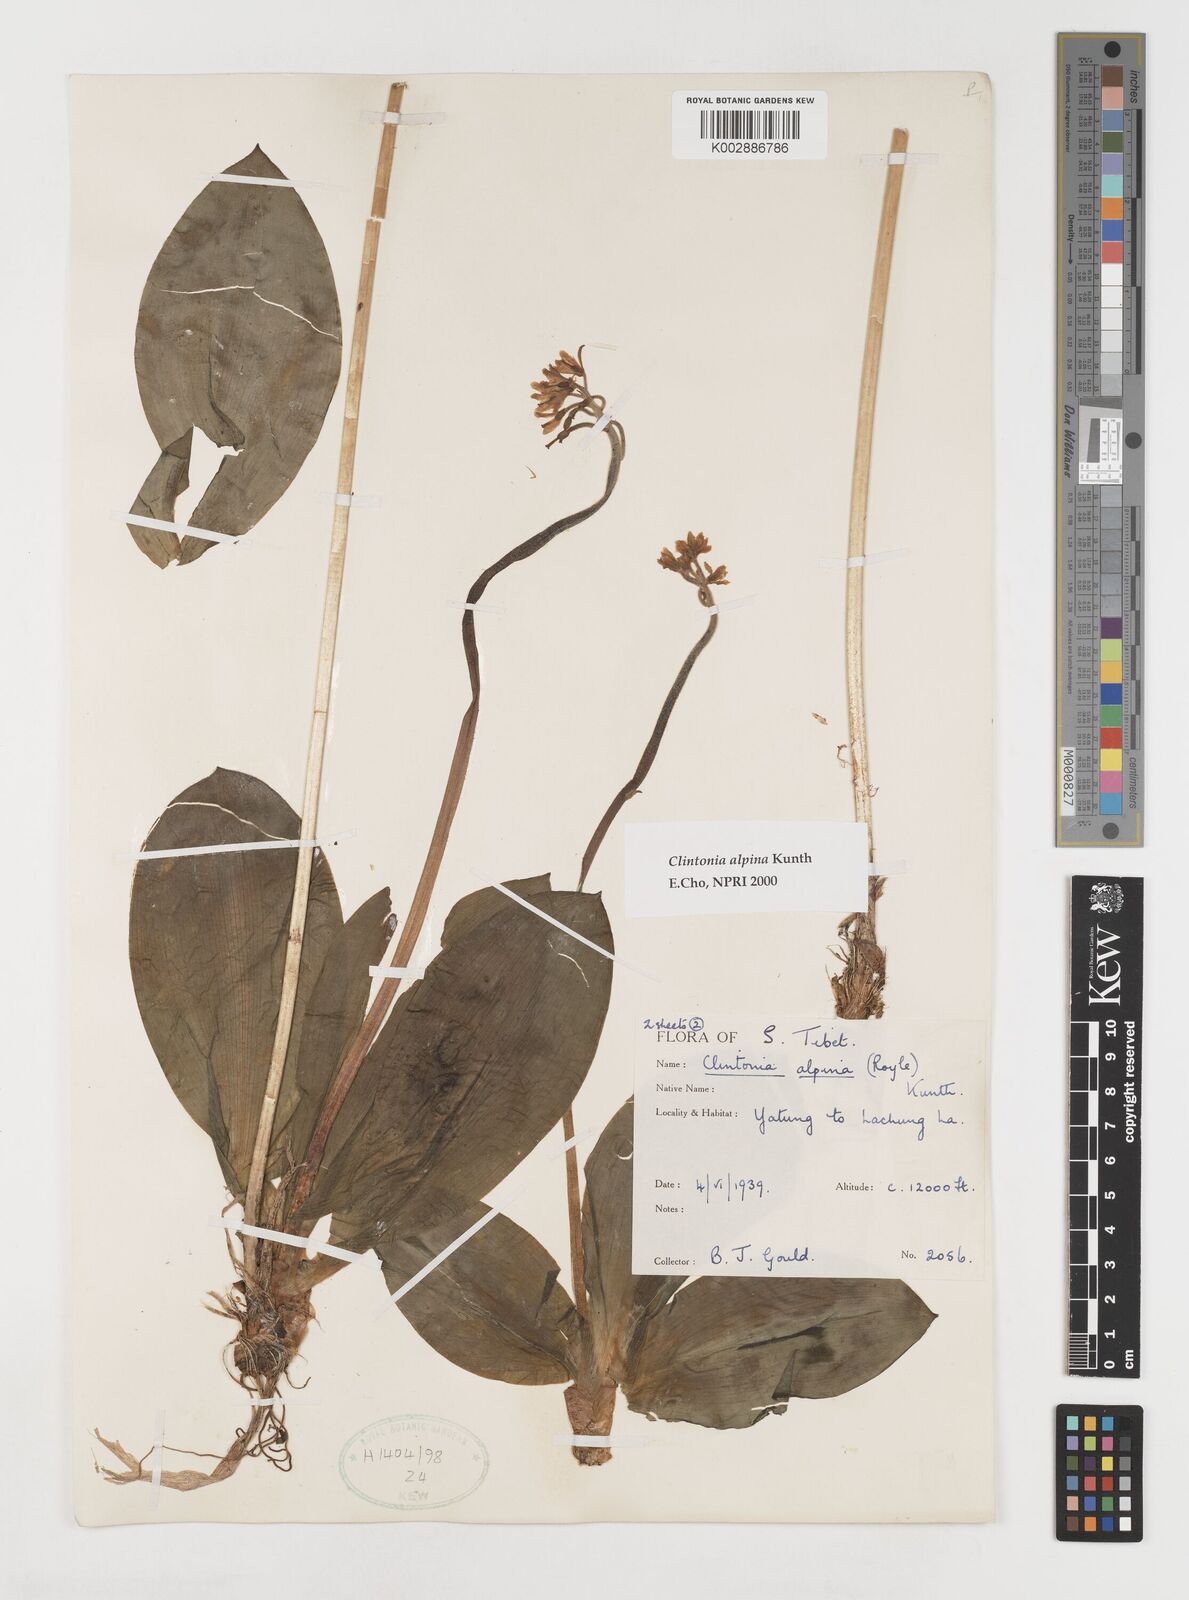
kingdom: Plantae
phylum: Tracheophyta
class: Liliopsida
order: Liliales
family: Liliaceae
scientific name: Liliaceae
